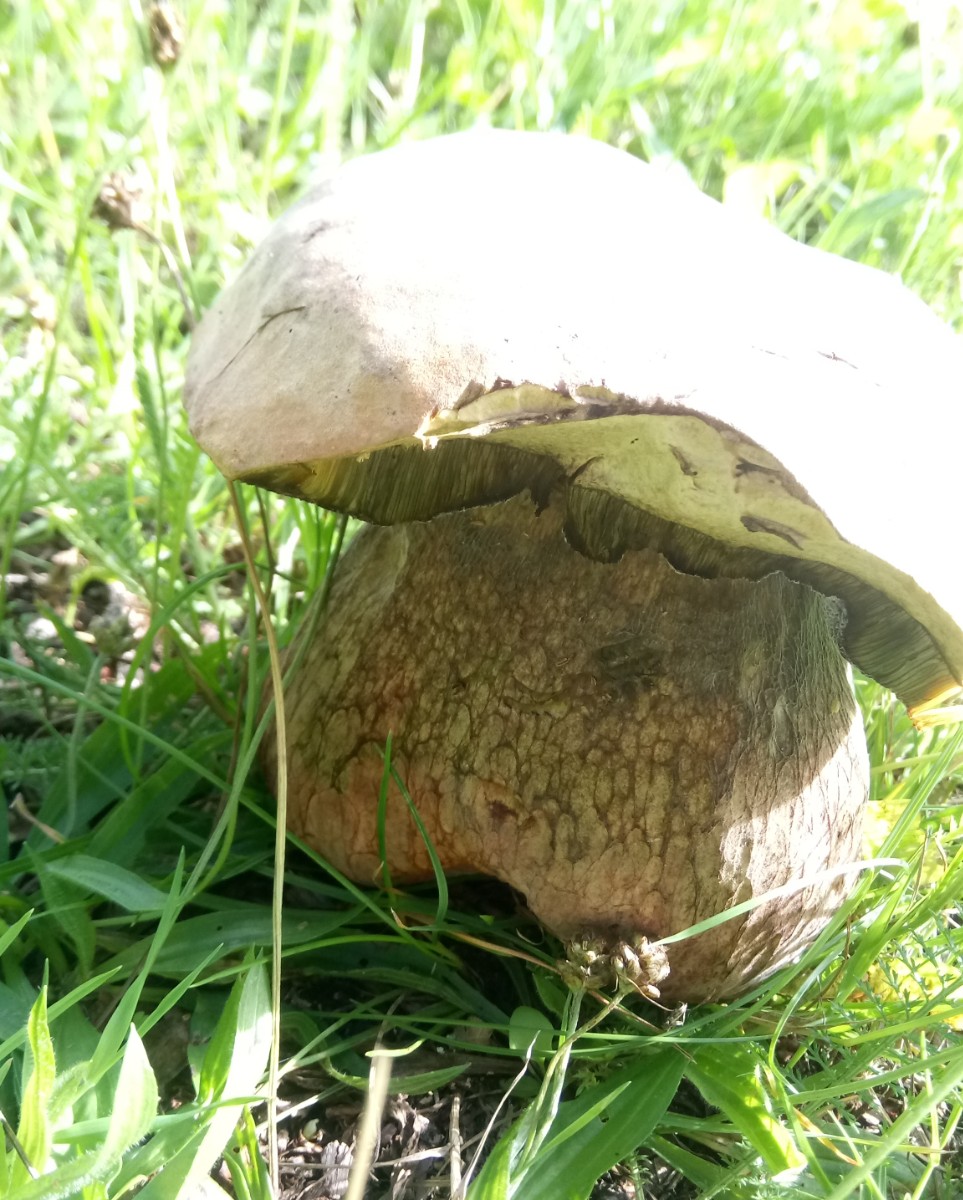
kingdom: Fungi
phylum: Basidiomycota
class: Agaricomycetes
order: Boletales
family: Boletaceae
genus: Caloboletus
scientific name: Caloboletus radicans
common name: rod-rørhat
